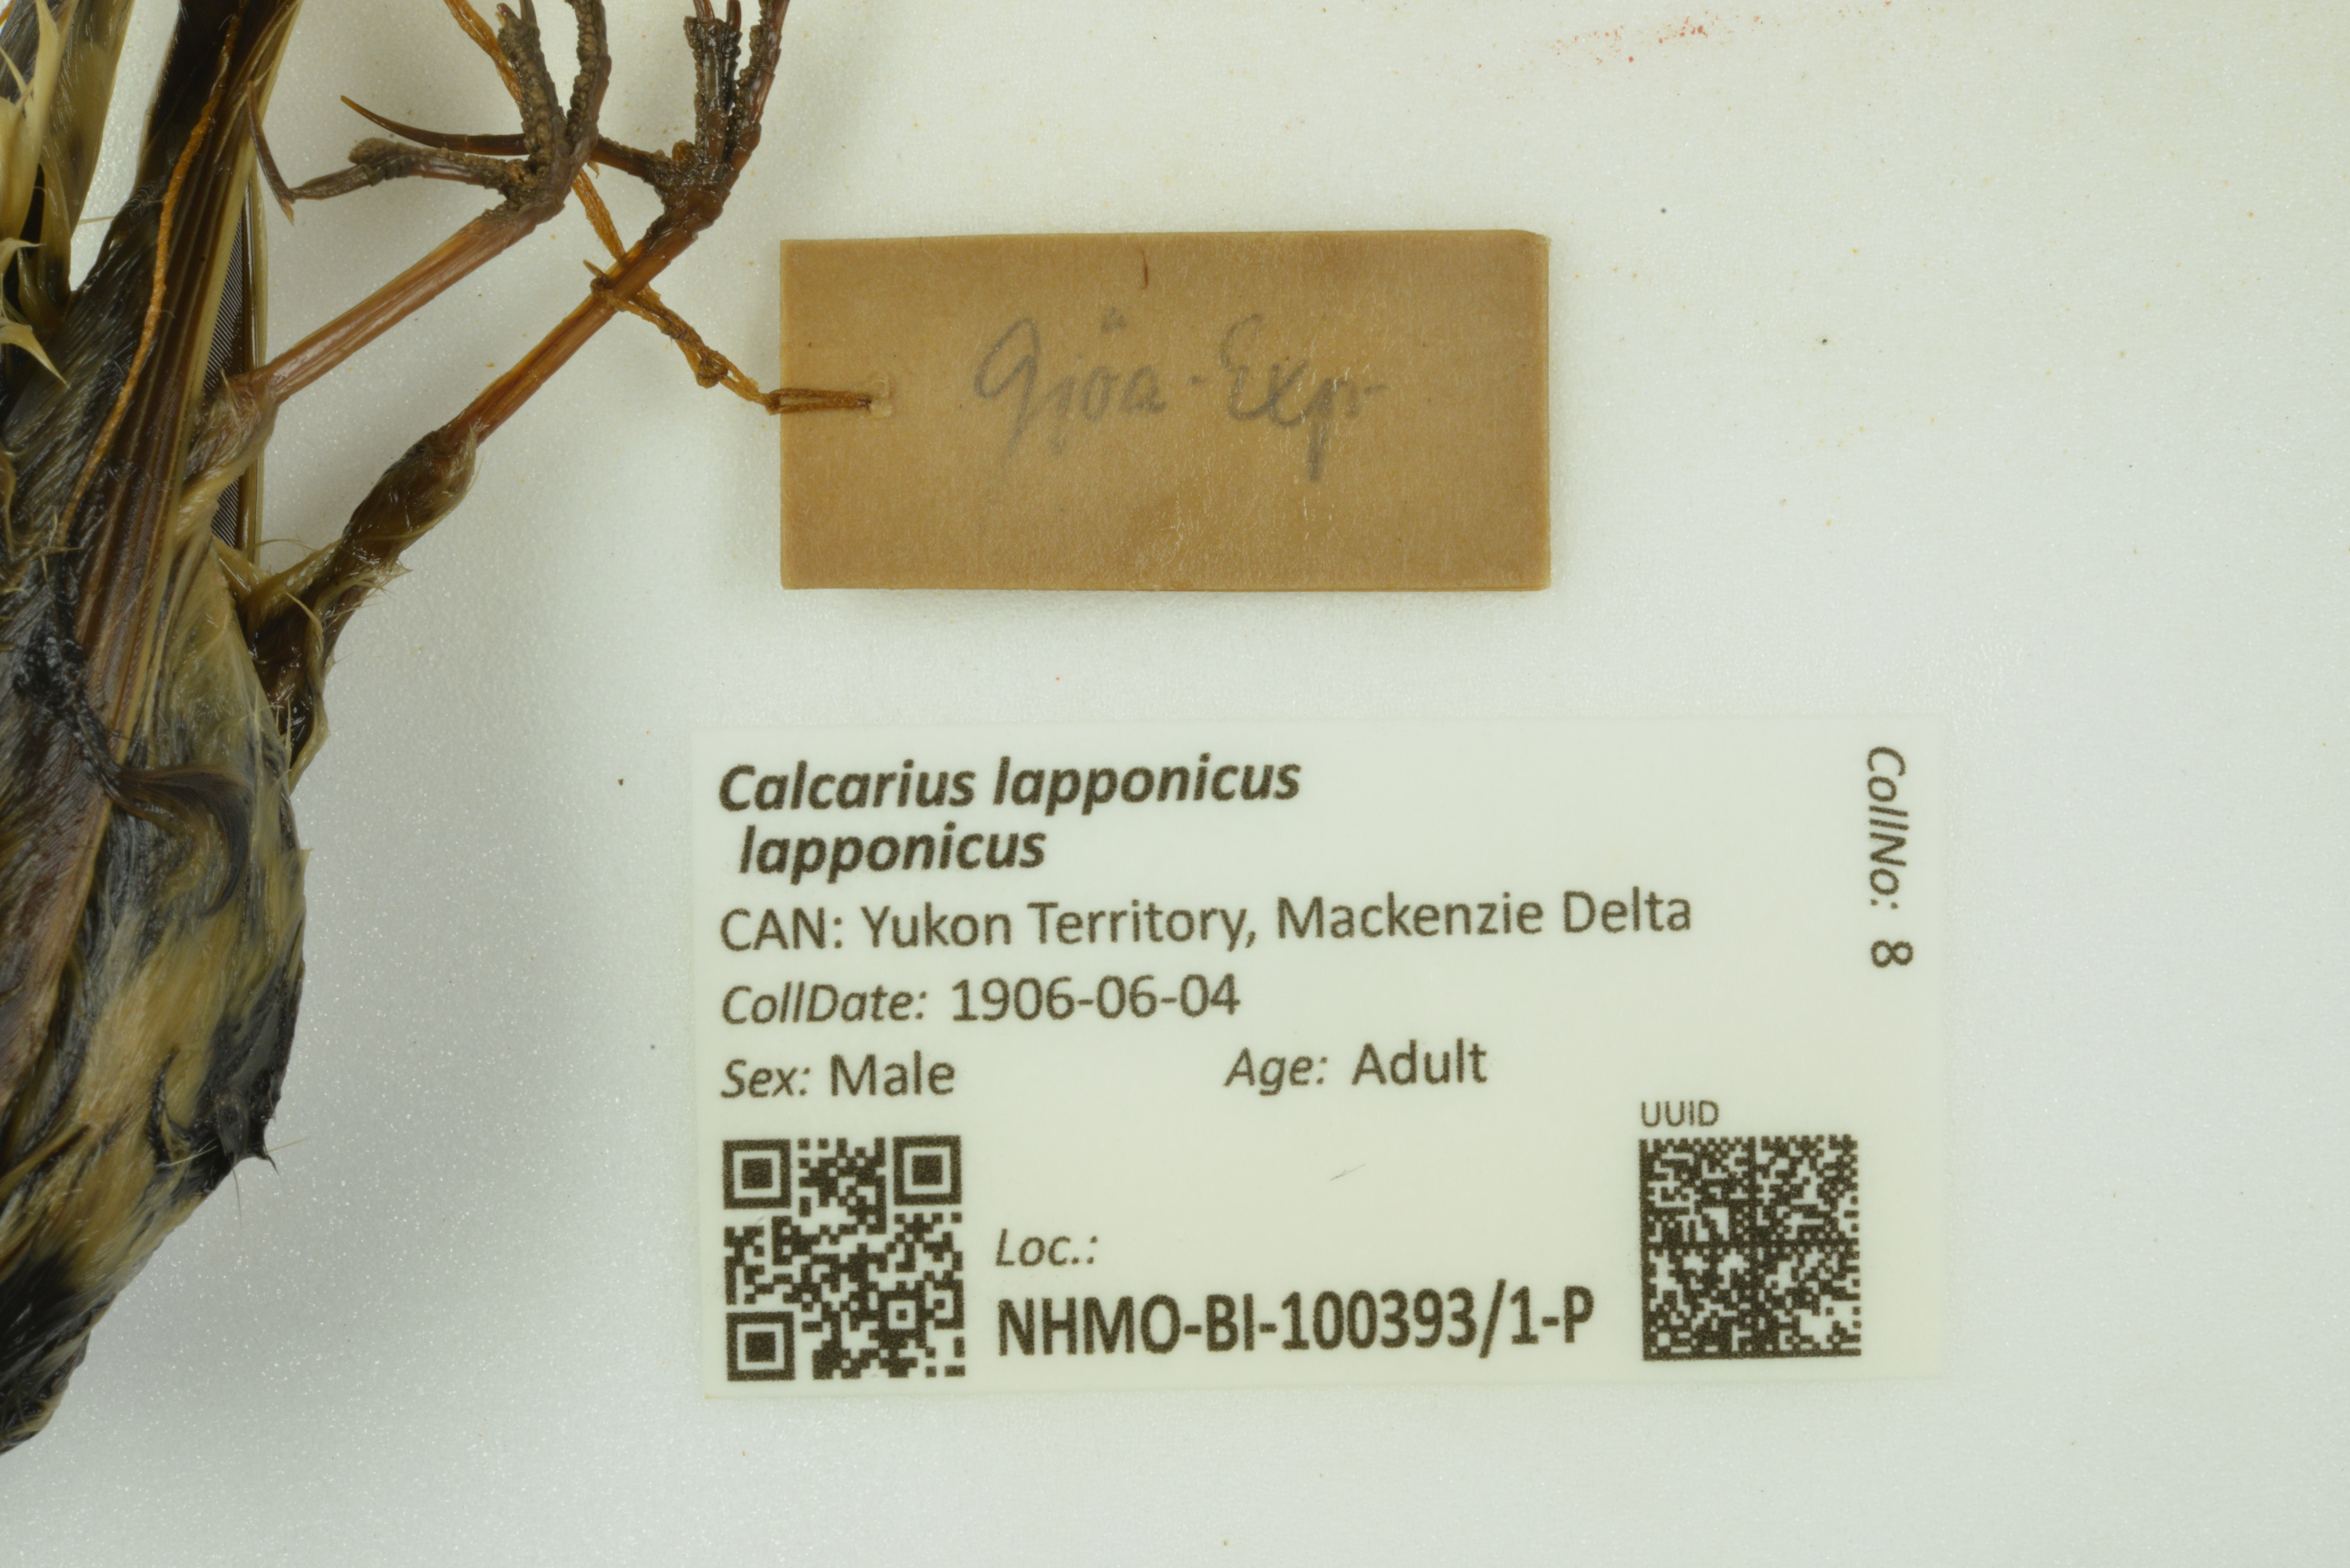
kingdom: Animalia
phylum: Chordata
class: Aves
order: Passeriformes
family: Calcariidae
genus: Calcarius
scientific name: Calcarius lapponicus
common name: Lapland longspur
